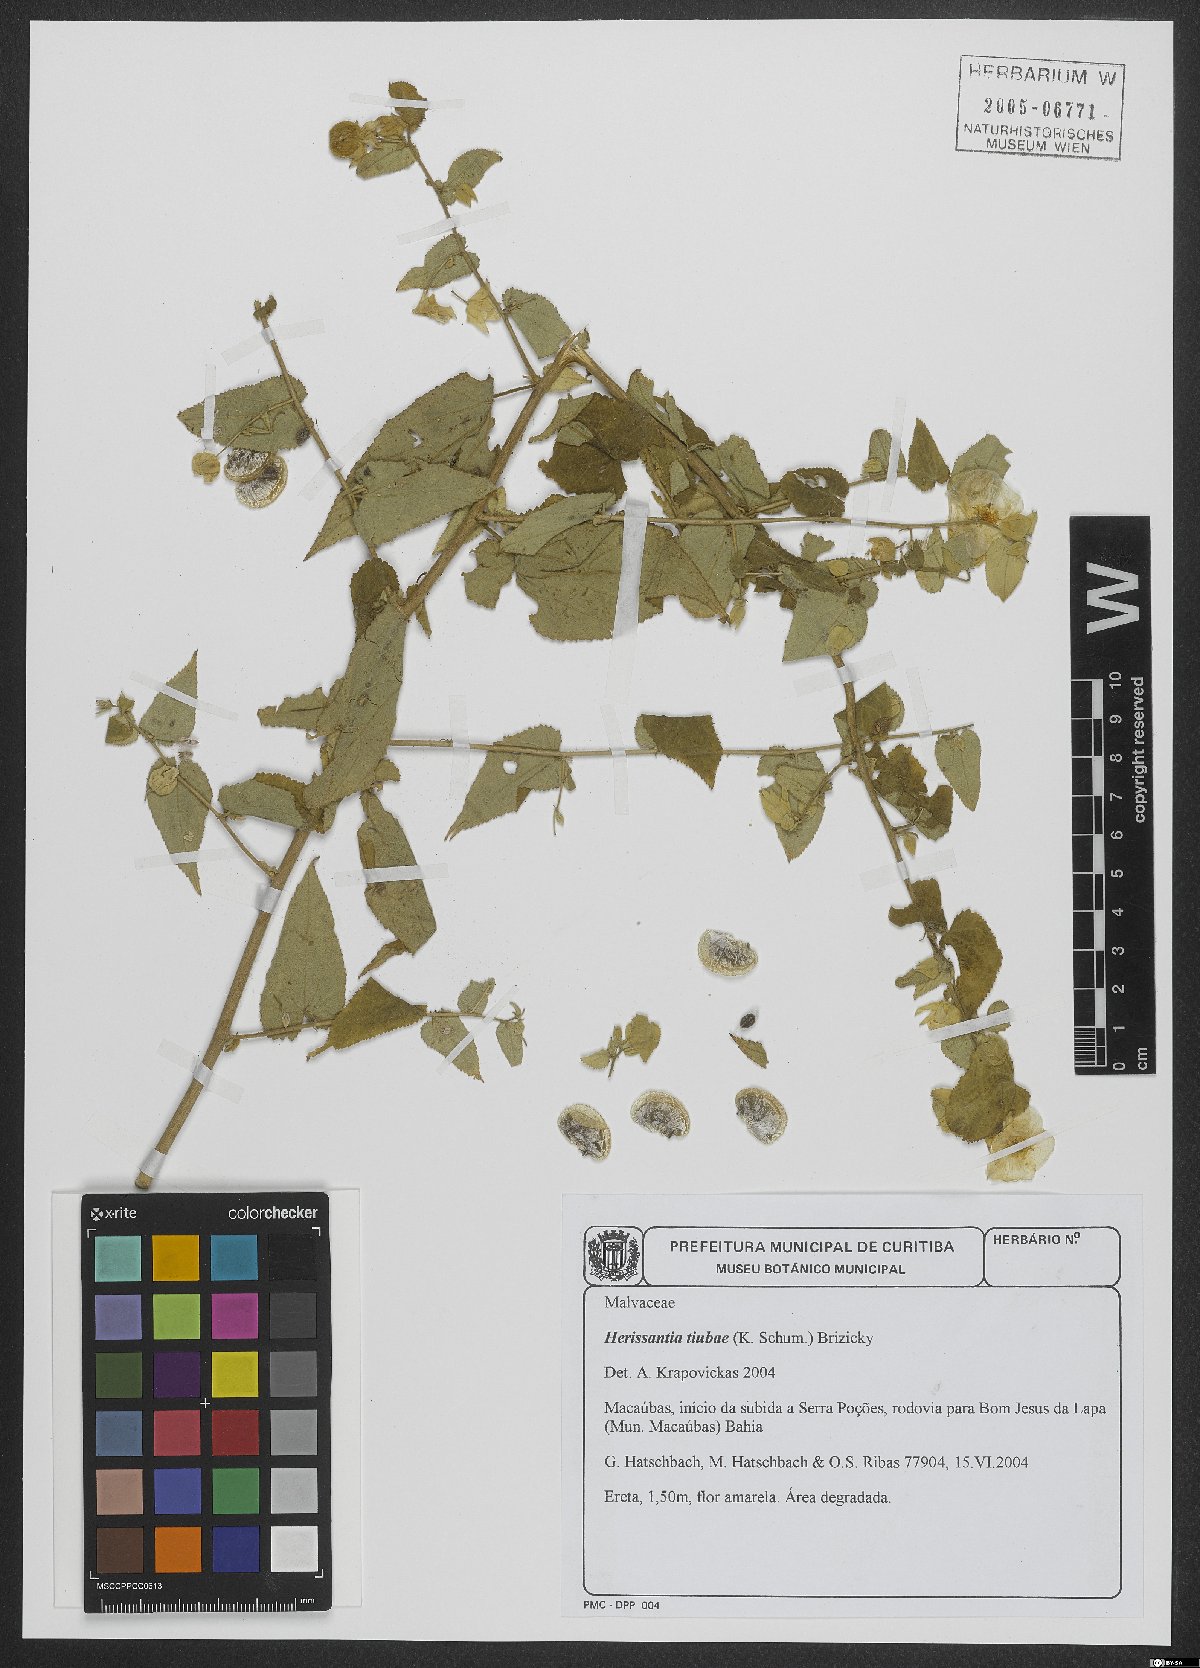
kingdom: Plantae
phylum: Tracheophyta
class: Magnoliopsida
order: Malvales
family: Malvaceae
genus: Herissantia
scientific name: Herissantia tiubae
